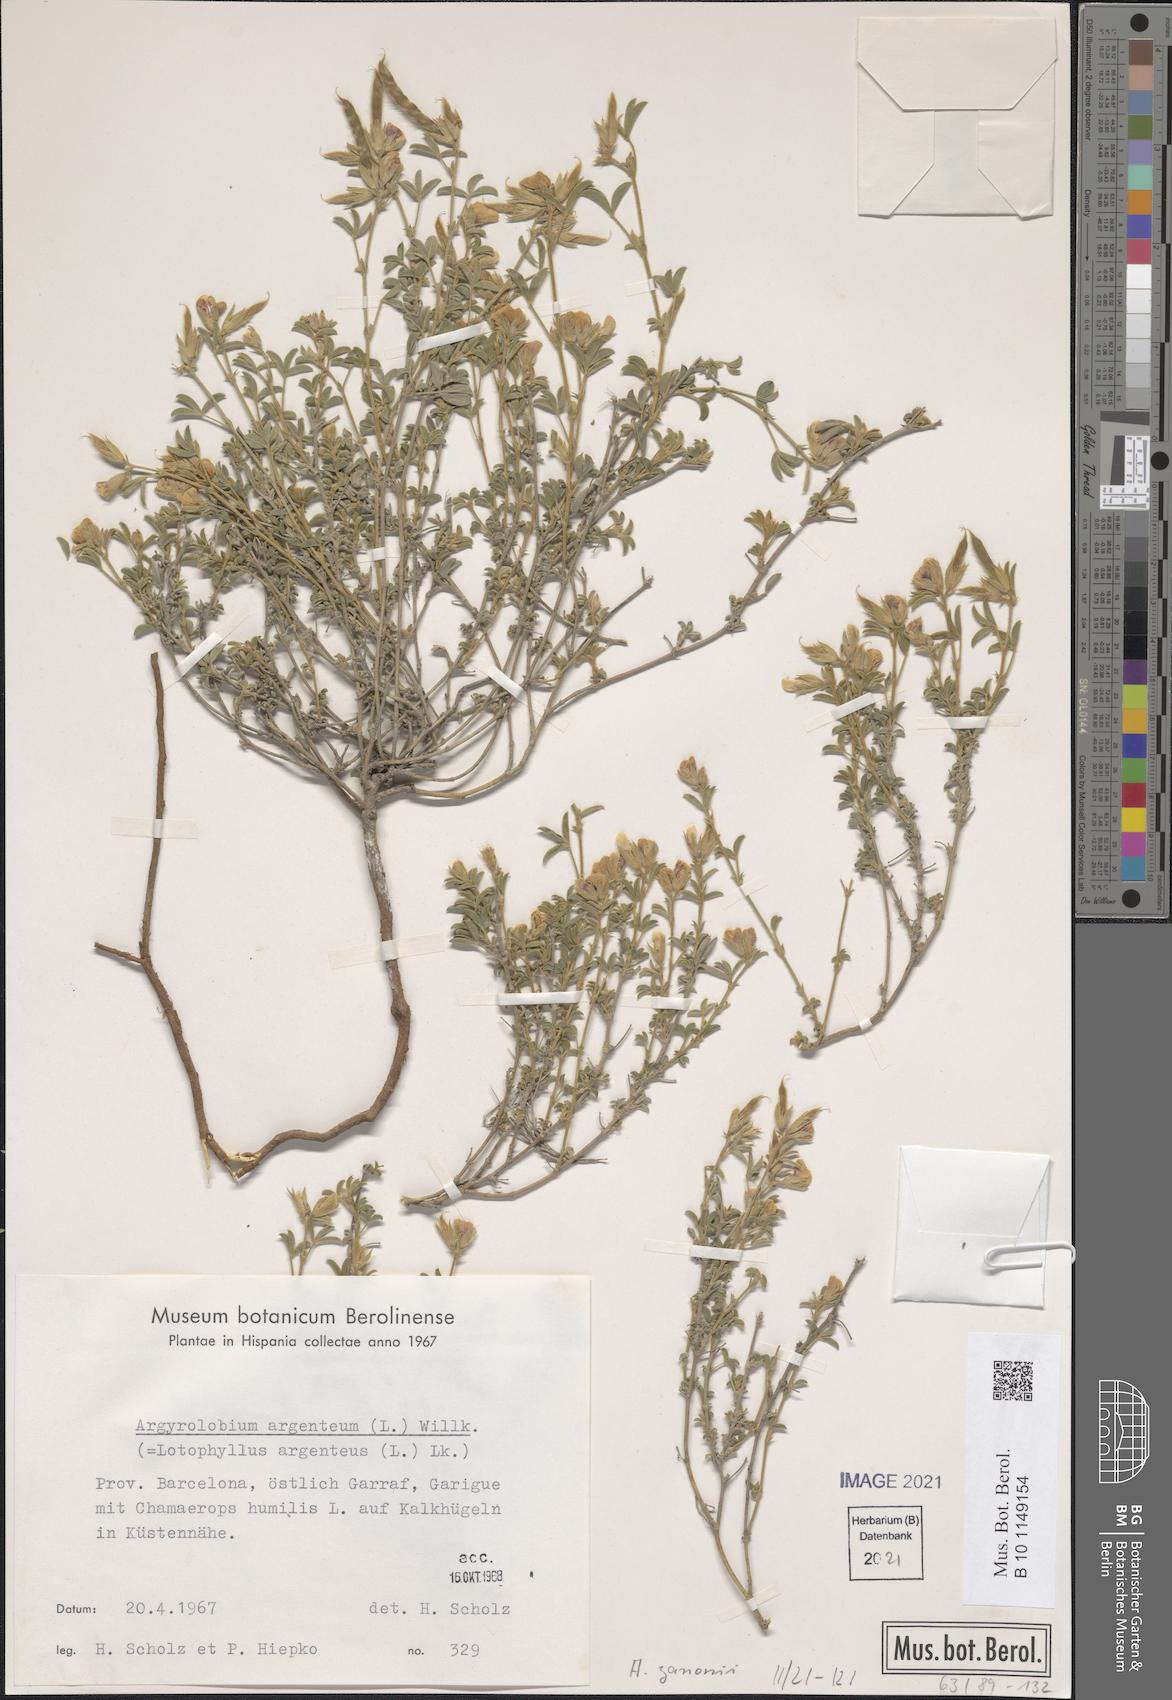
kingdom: Plantae
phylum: Tracheophyta
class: Magnoliopsida
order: Fabales
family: Fabaceae
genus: Argyrolobium
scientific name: Argyrolobium zanonii
